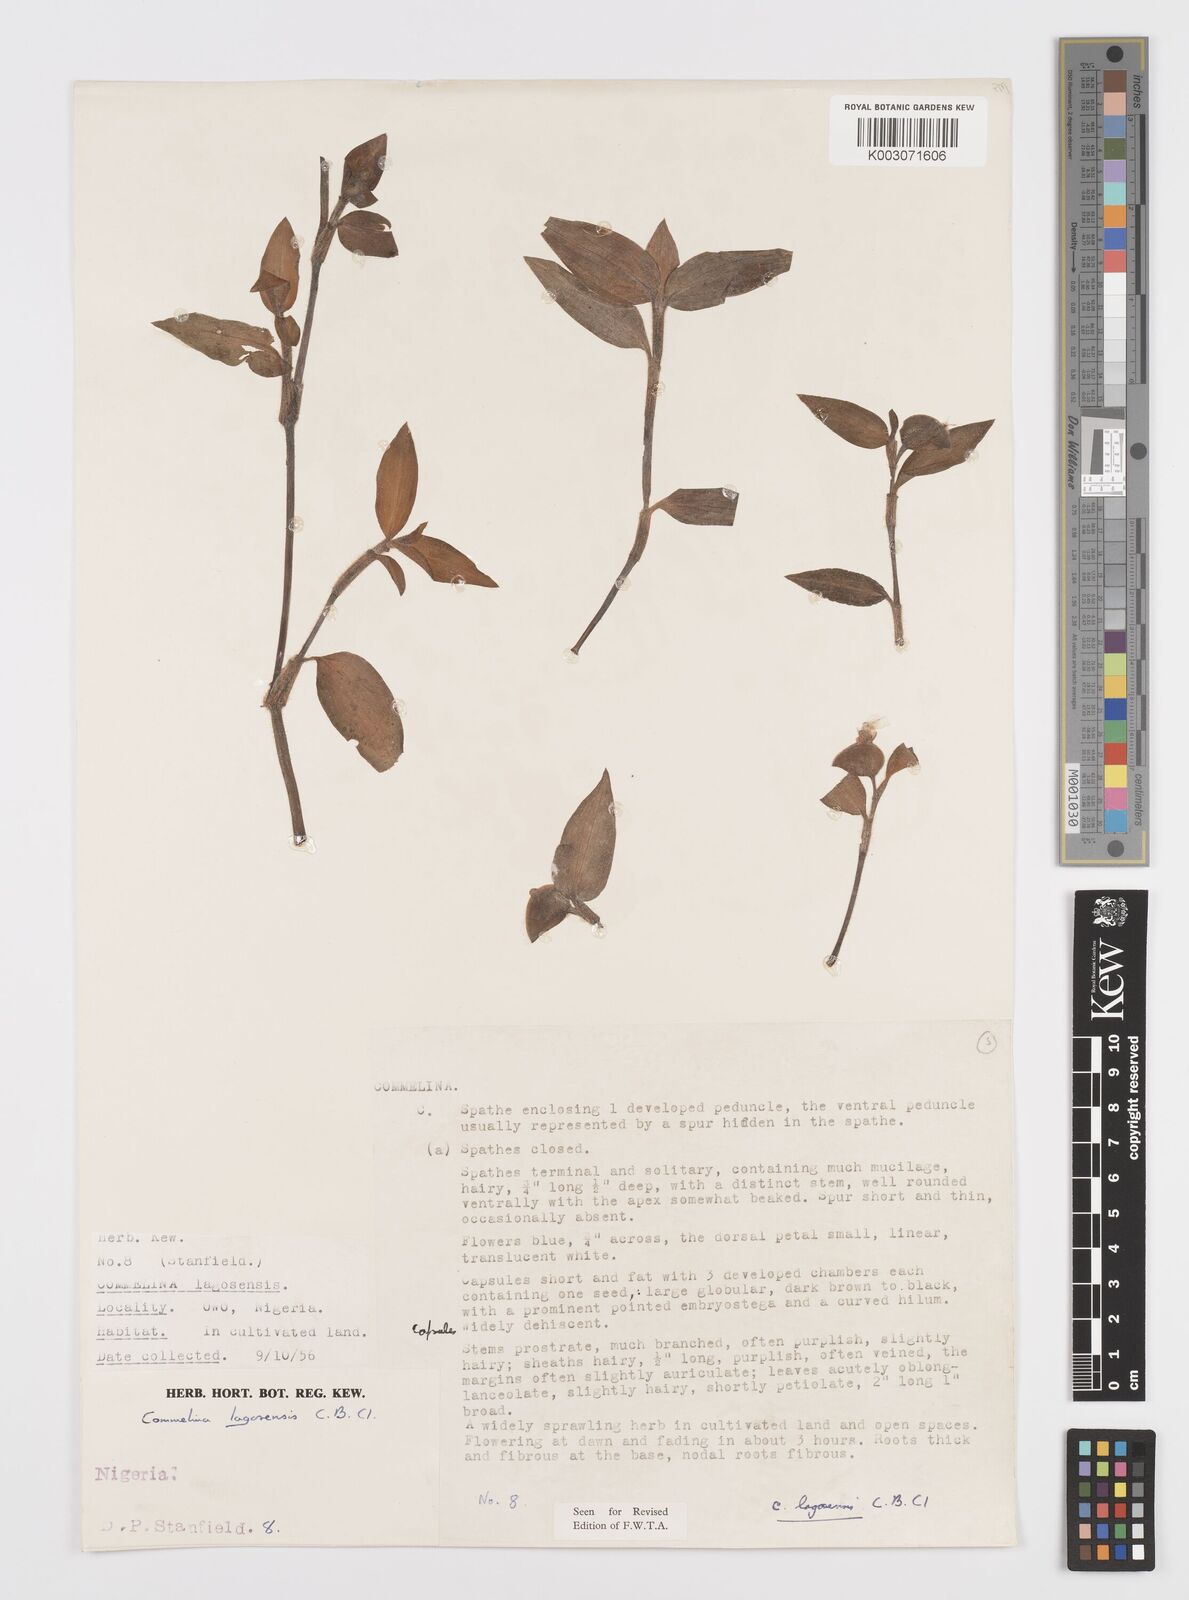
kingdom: Plantae
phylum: Tracheophyta
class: Liliopsida
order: Commelinales
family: Commelinaceae
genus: Commelina
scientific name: Commelina bracteosa
